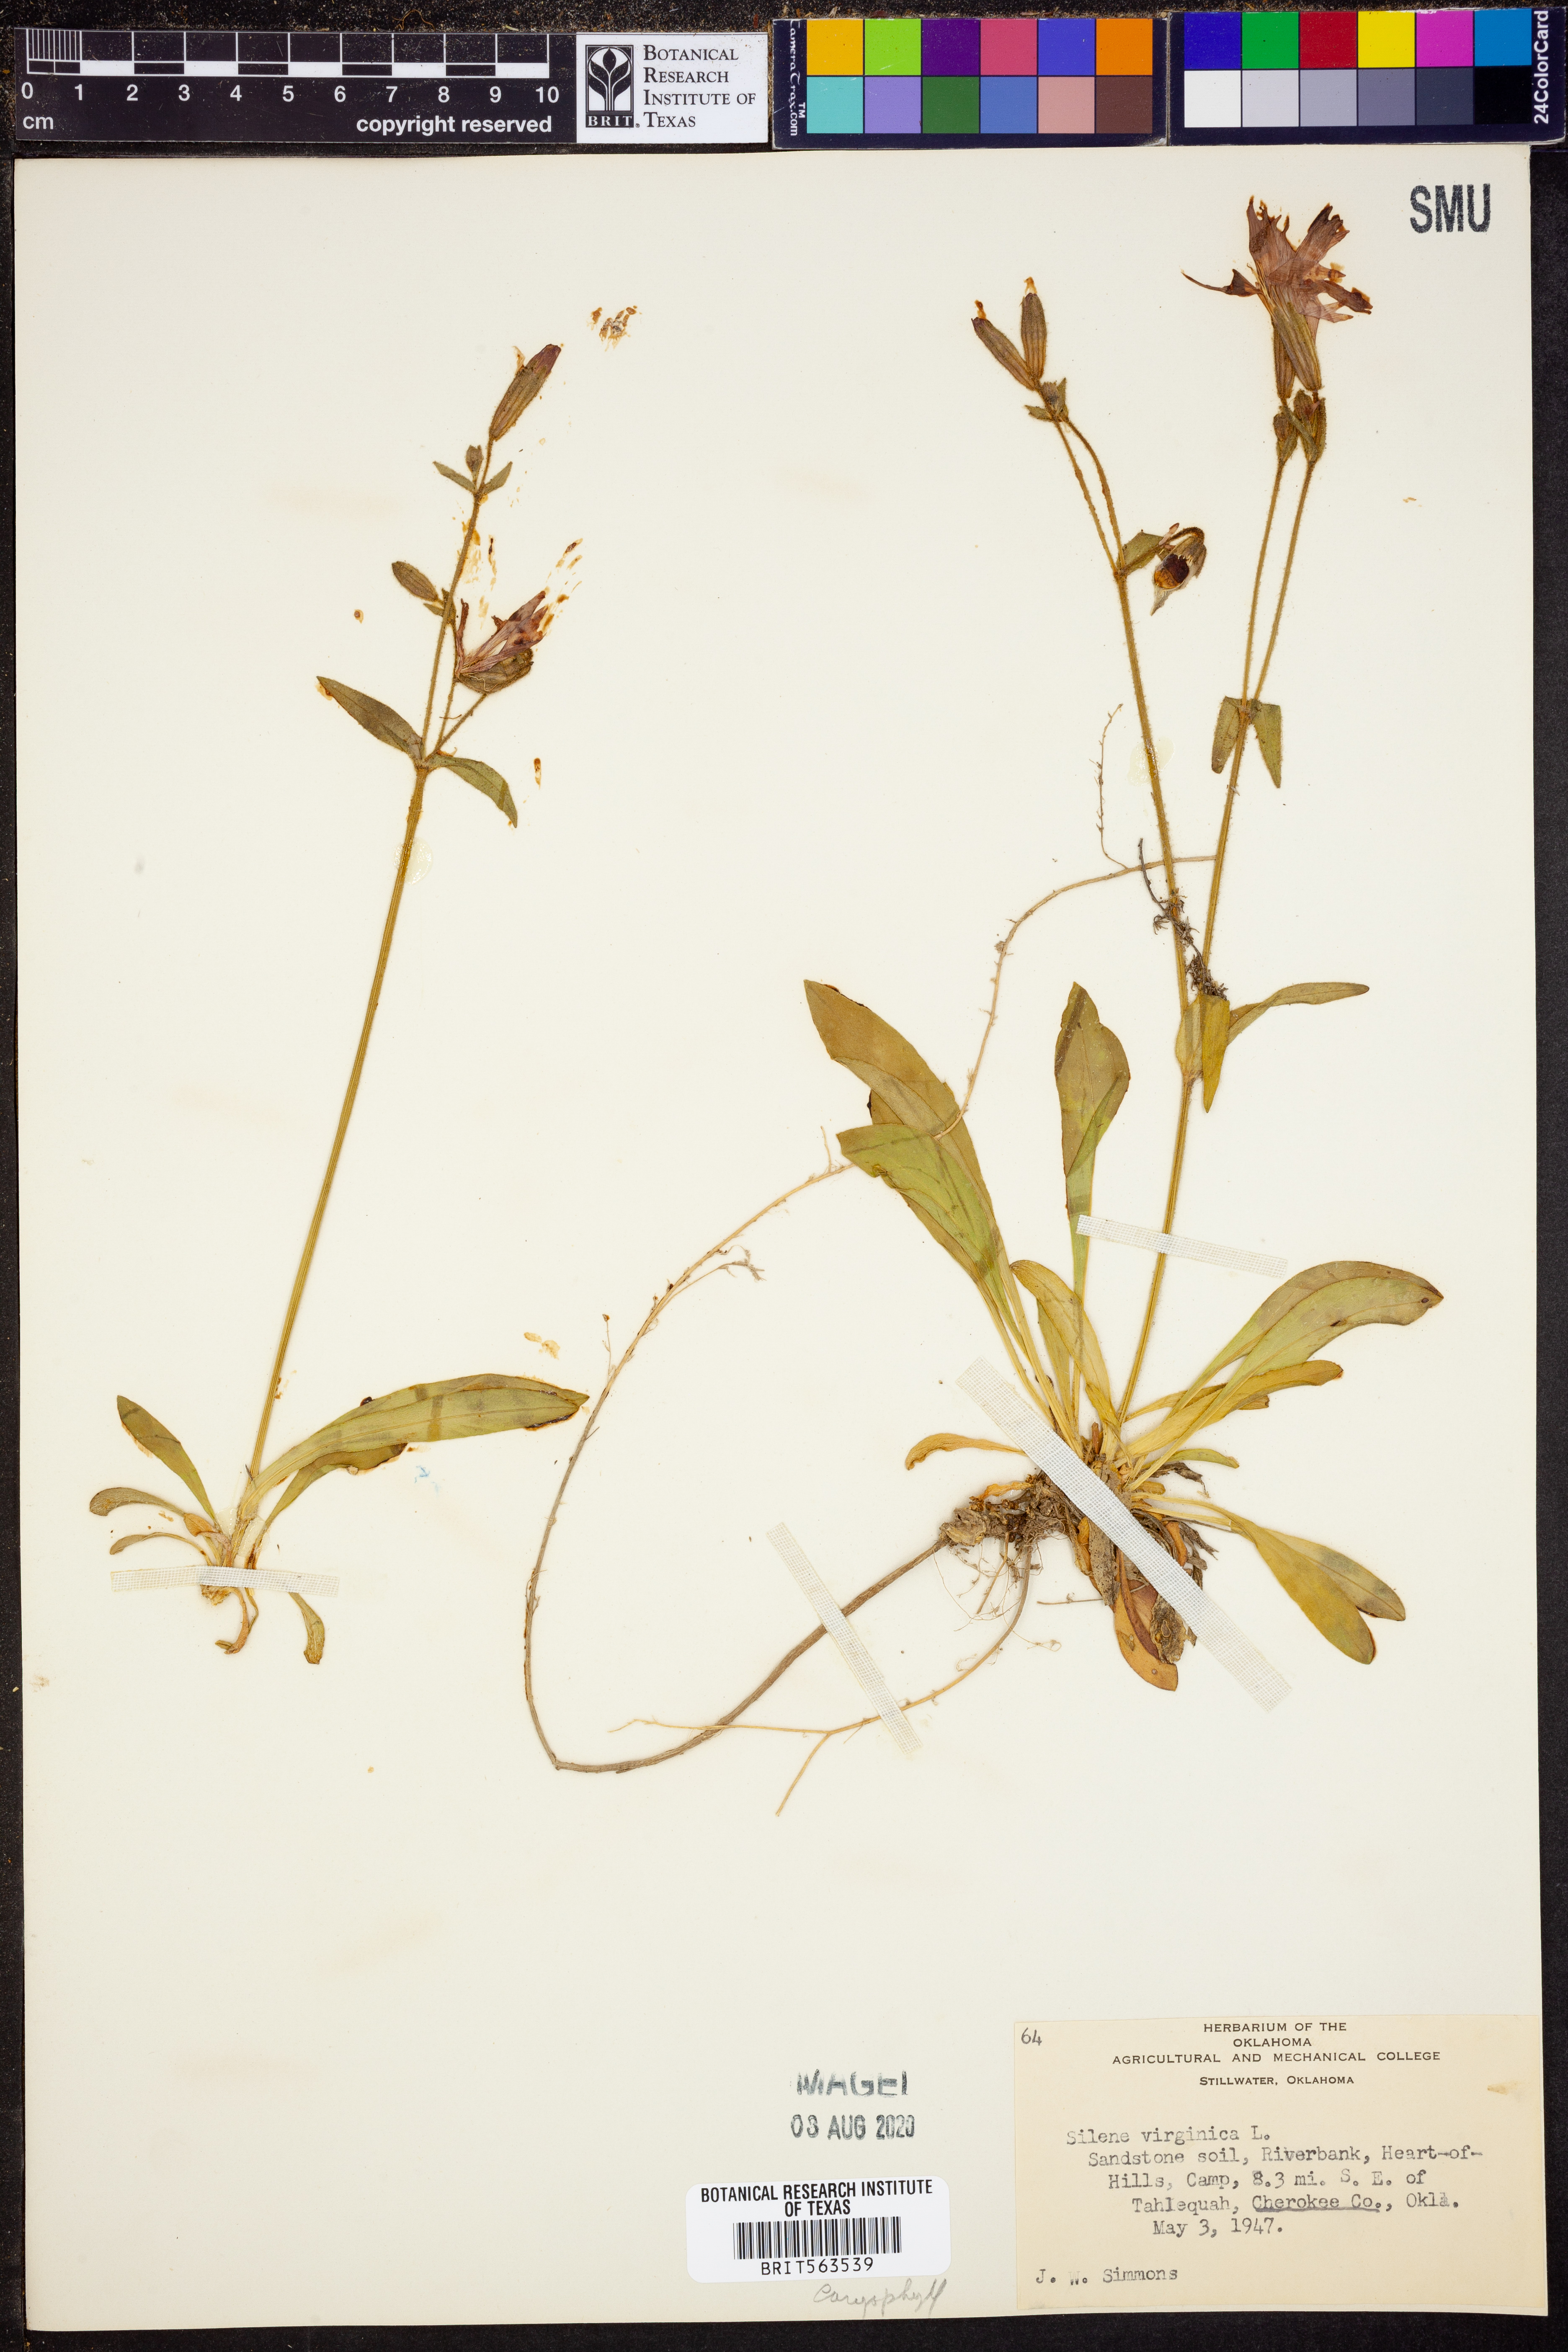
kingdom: Plantae
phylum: Tracheophyta
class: Magnoliopsida
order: Caryophyllales
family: Caryophyllaceae
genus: Silene
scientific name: Silene virginica
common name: Fire-pink
